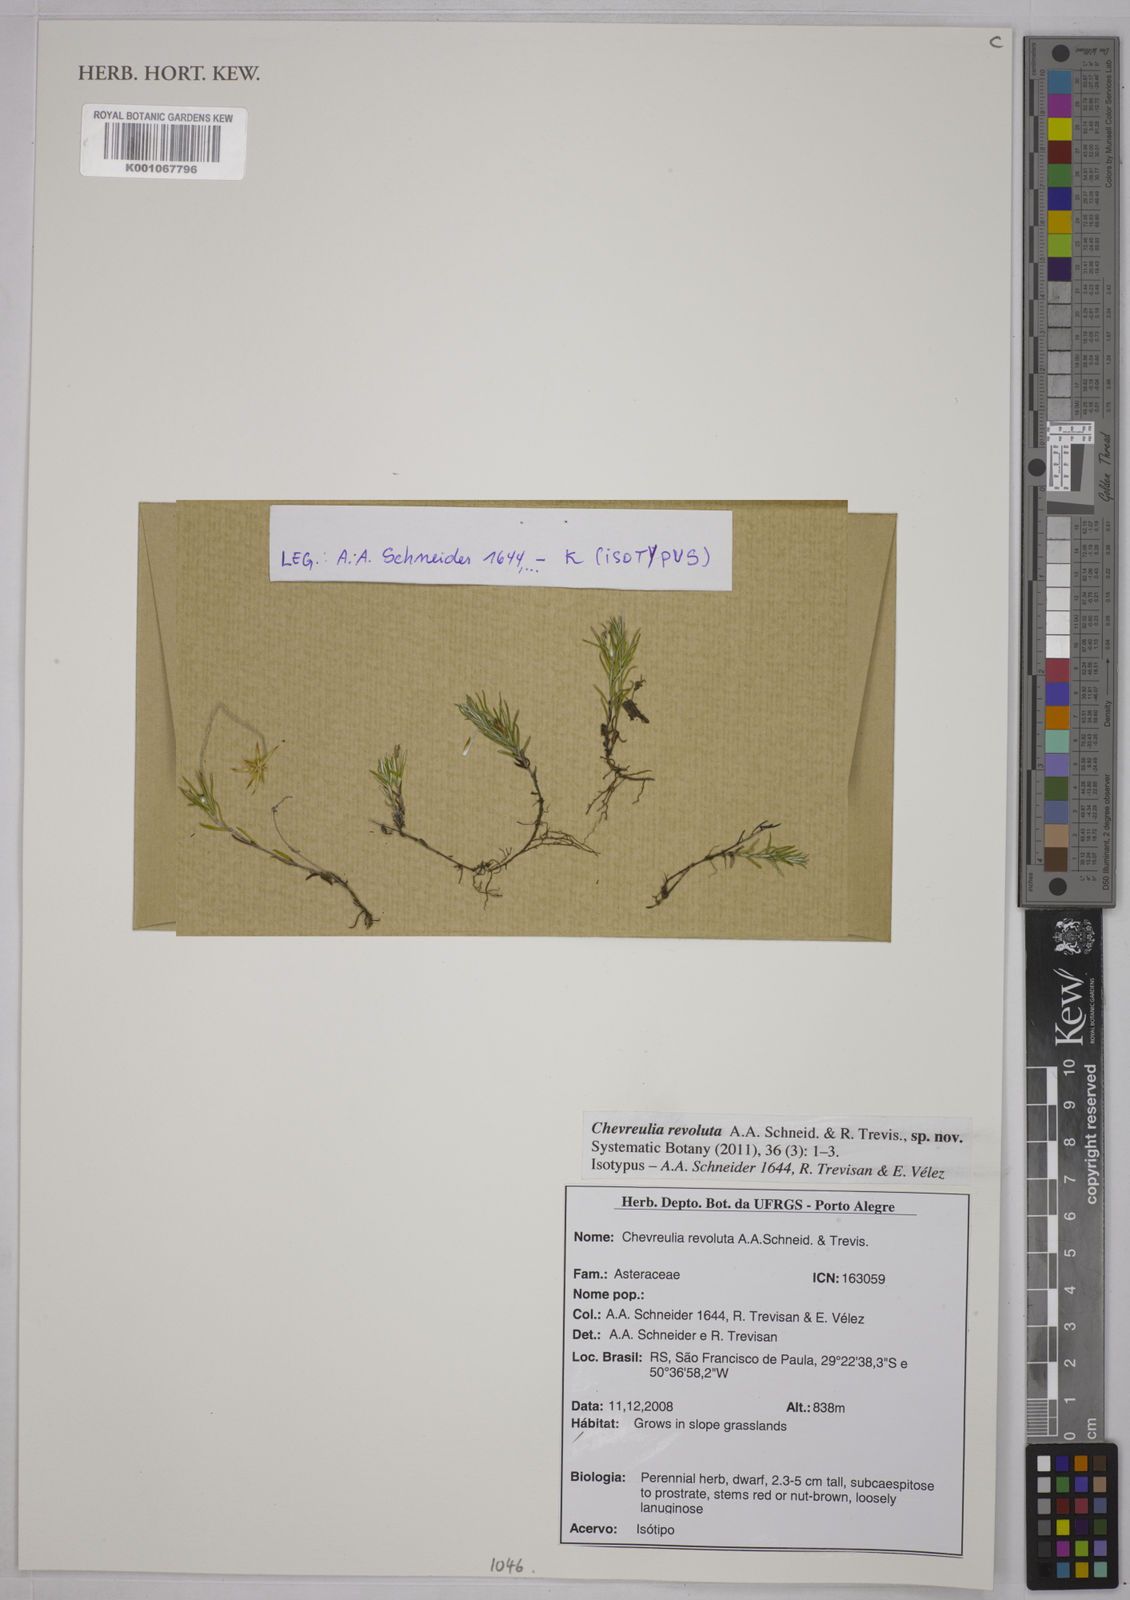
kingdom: Plantae
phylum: Tracheophyta
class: Magnoliopsida
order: Asterales
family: Asteraceae
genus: Chevreulia
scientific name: Chevreulia revoluta
